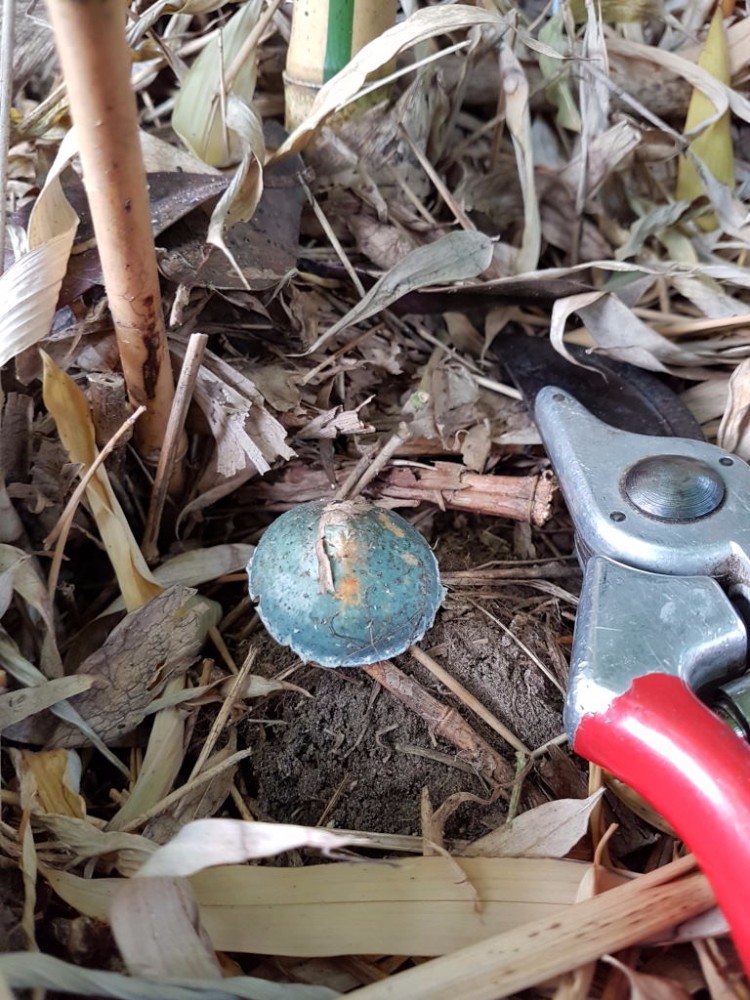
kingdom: Fungi
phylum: Basidiomycota
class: Agaricomycetes
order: Agaricales
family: Strophariaceae
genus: Stropharia
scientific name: Stropharia cyanea
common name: blågrøn bredblad
